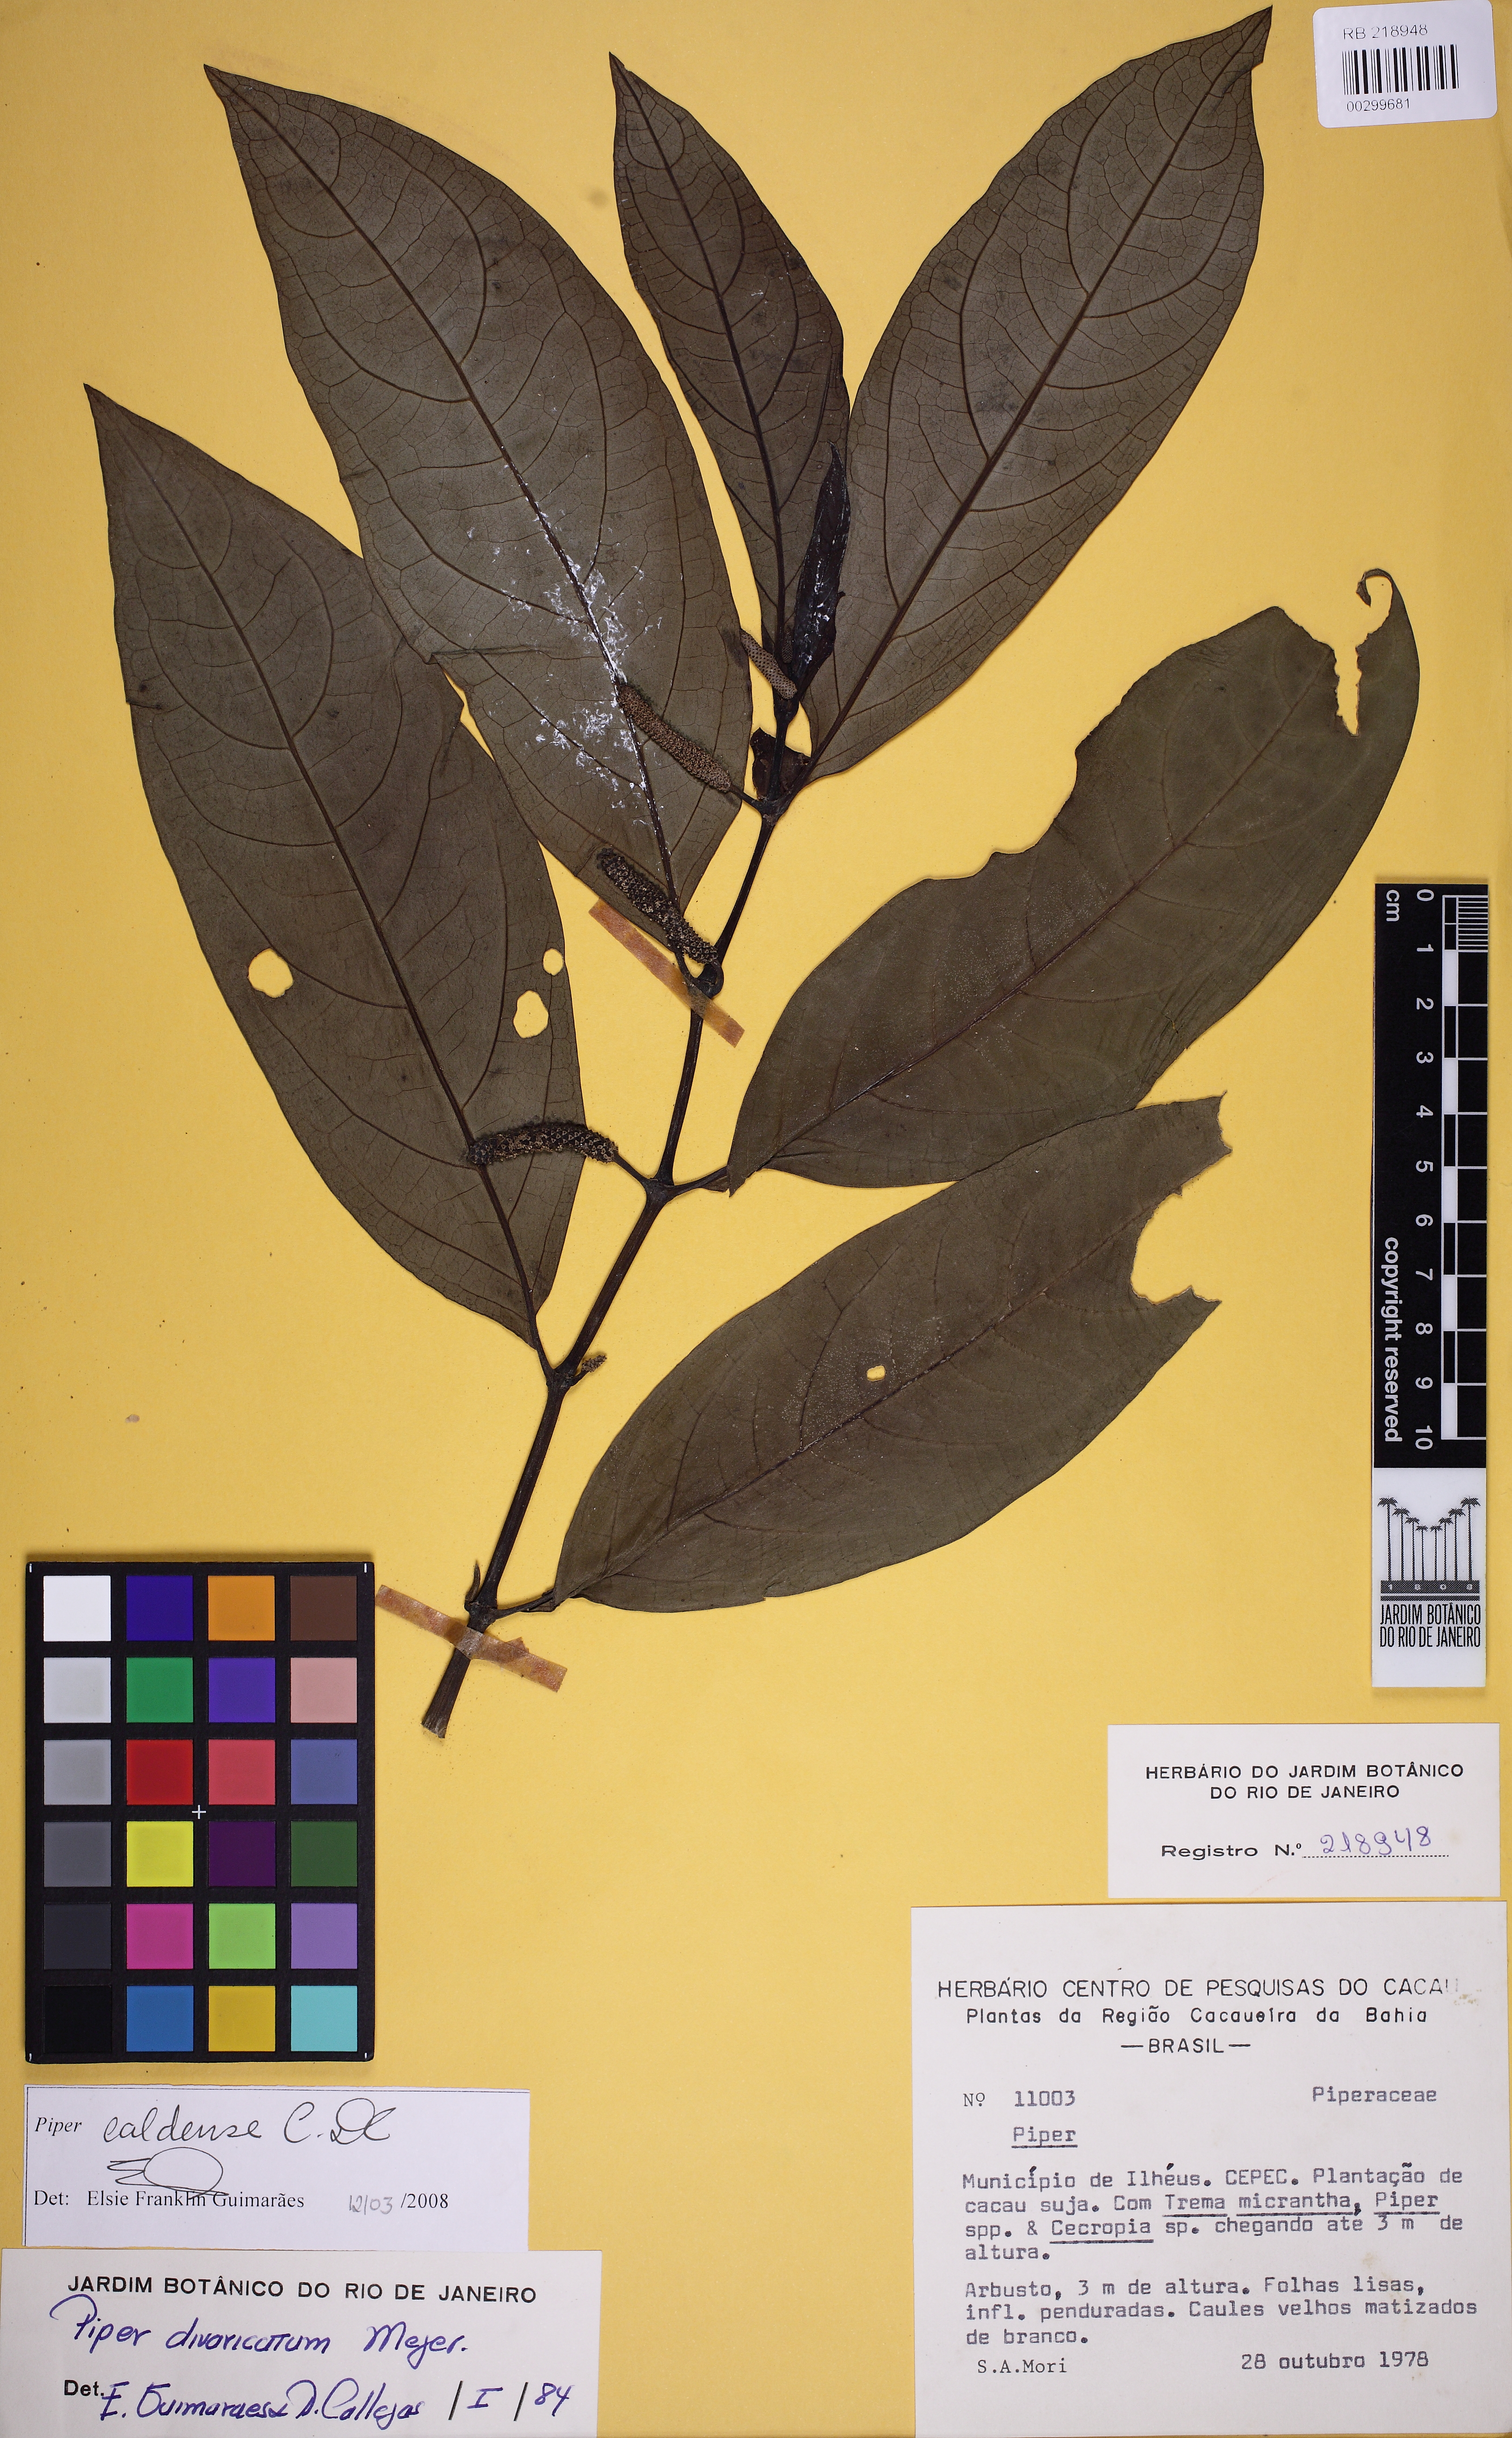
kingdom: Plantae
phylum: Tracheophyta
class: Magnoliopsida
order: Piperales
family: Piperaceae
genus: Piper
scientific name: Piper caldense
